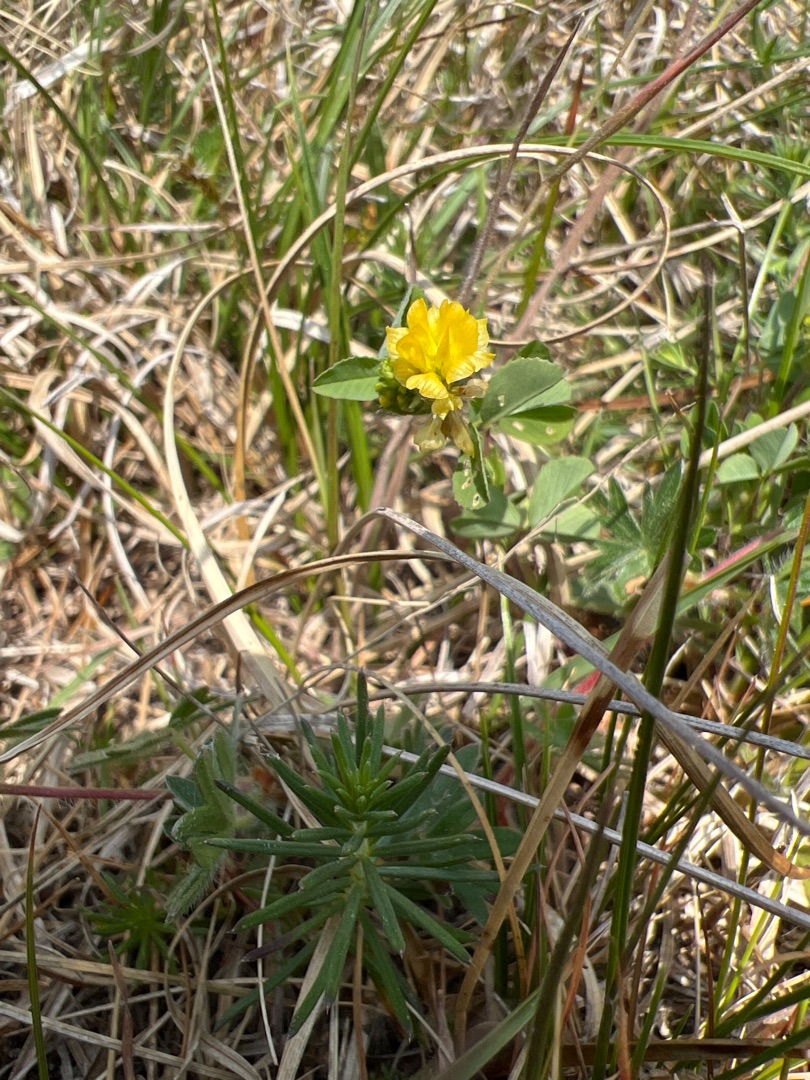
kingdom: Plantae
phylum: Tracheophyta
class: Magnoliopsida
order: Fabales
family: Fabaceae
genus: Trifolium
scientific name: Trifolium campestre
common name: Gul kløver
